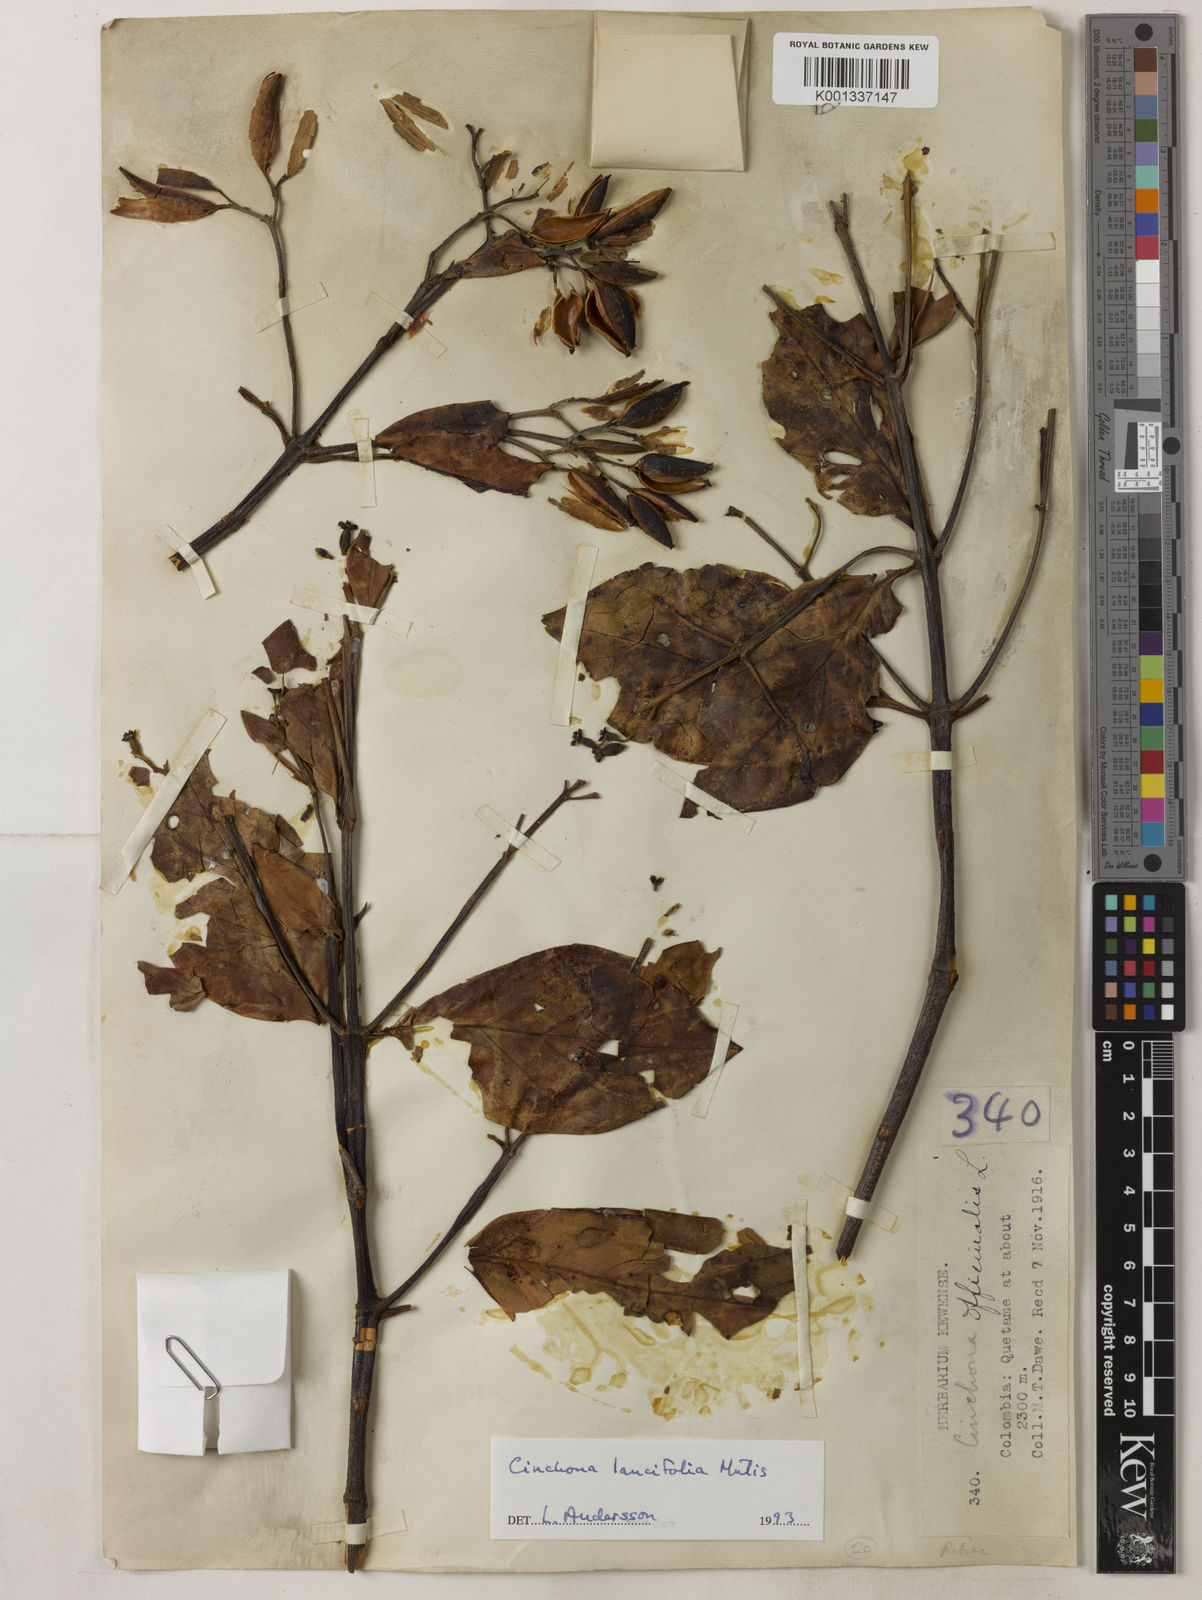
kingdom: Plantae
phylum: Tracheophyta
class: Magnoliopsida
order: Gentianales
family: Rubiaceae
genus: Cinchona
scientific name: Cinchona lancifolia
